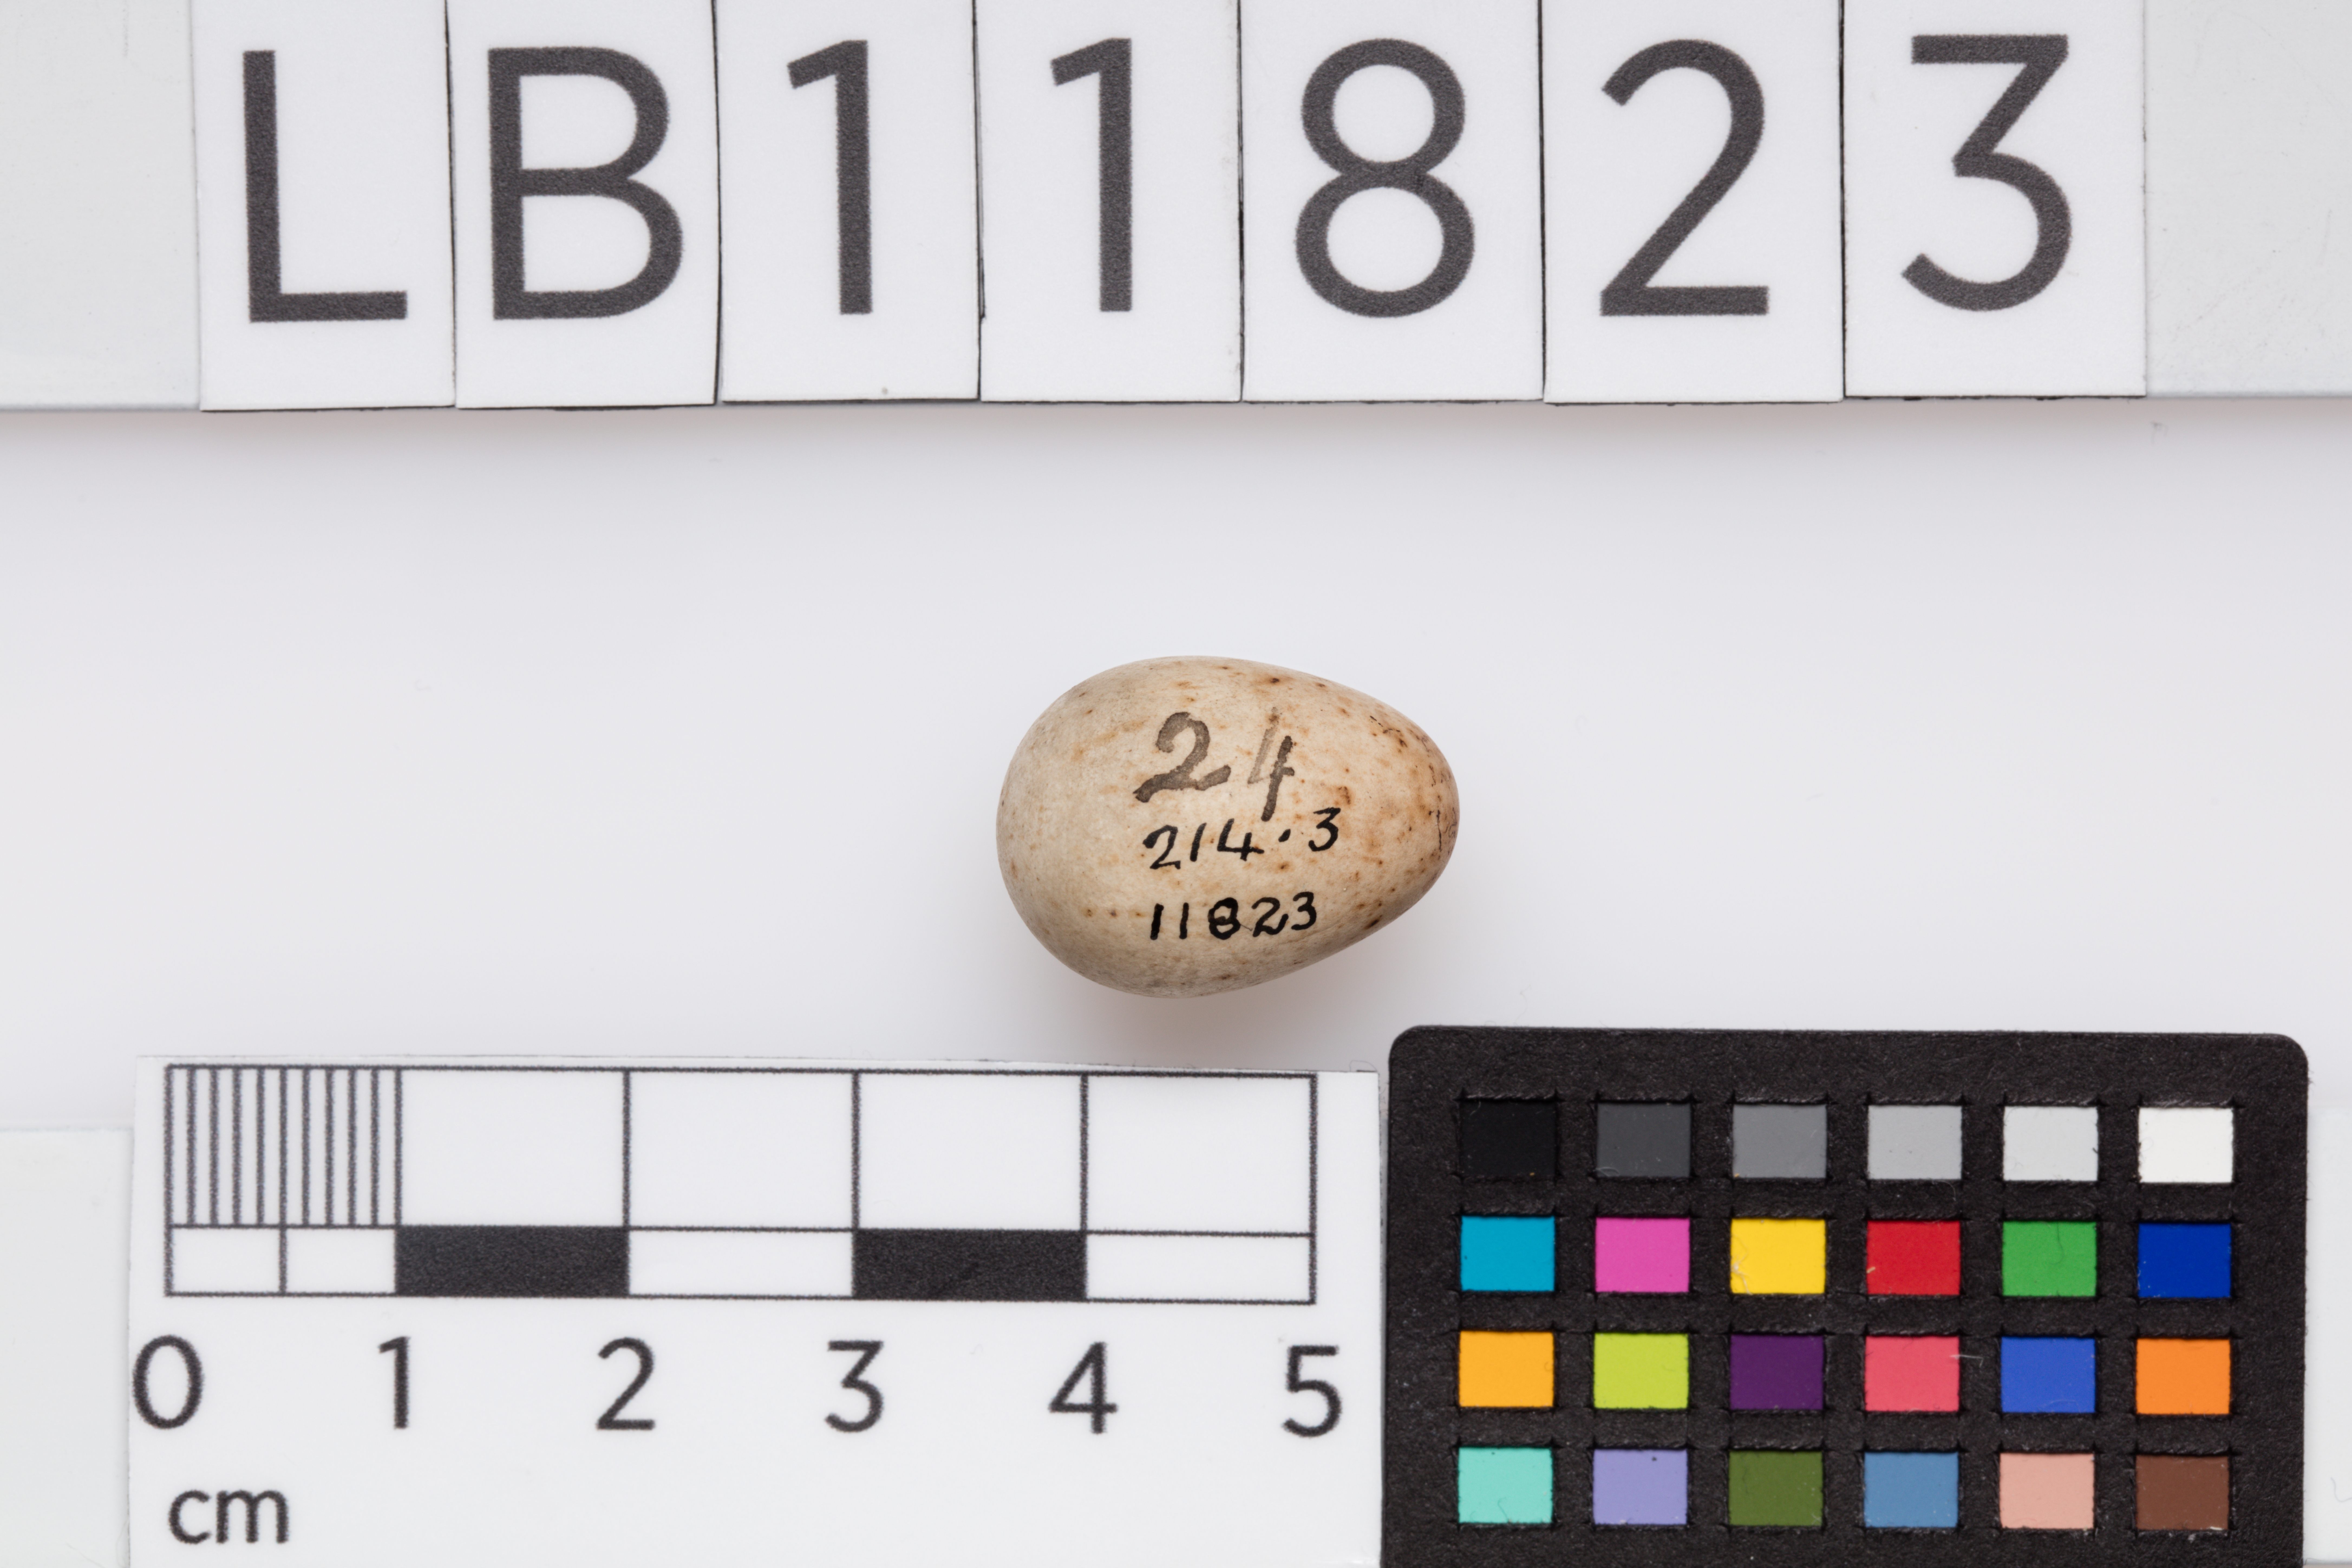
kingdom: Animalia
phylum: Chordata
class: Aves
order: Passeriformes
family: Muscicapidae
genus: Erithacus
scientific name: Erithacus rubecula
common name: European robin
